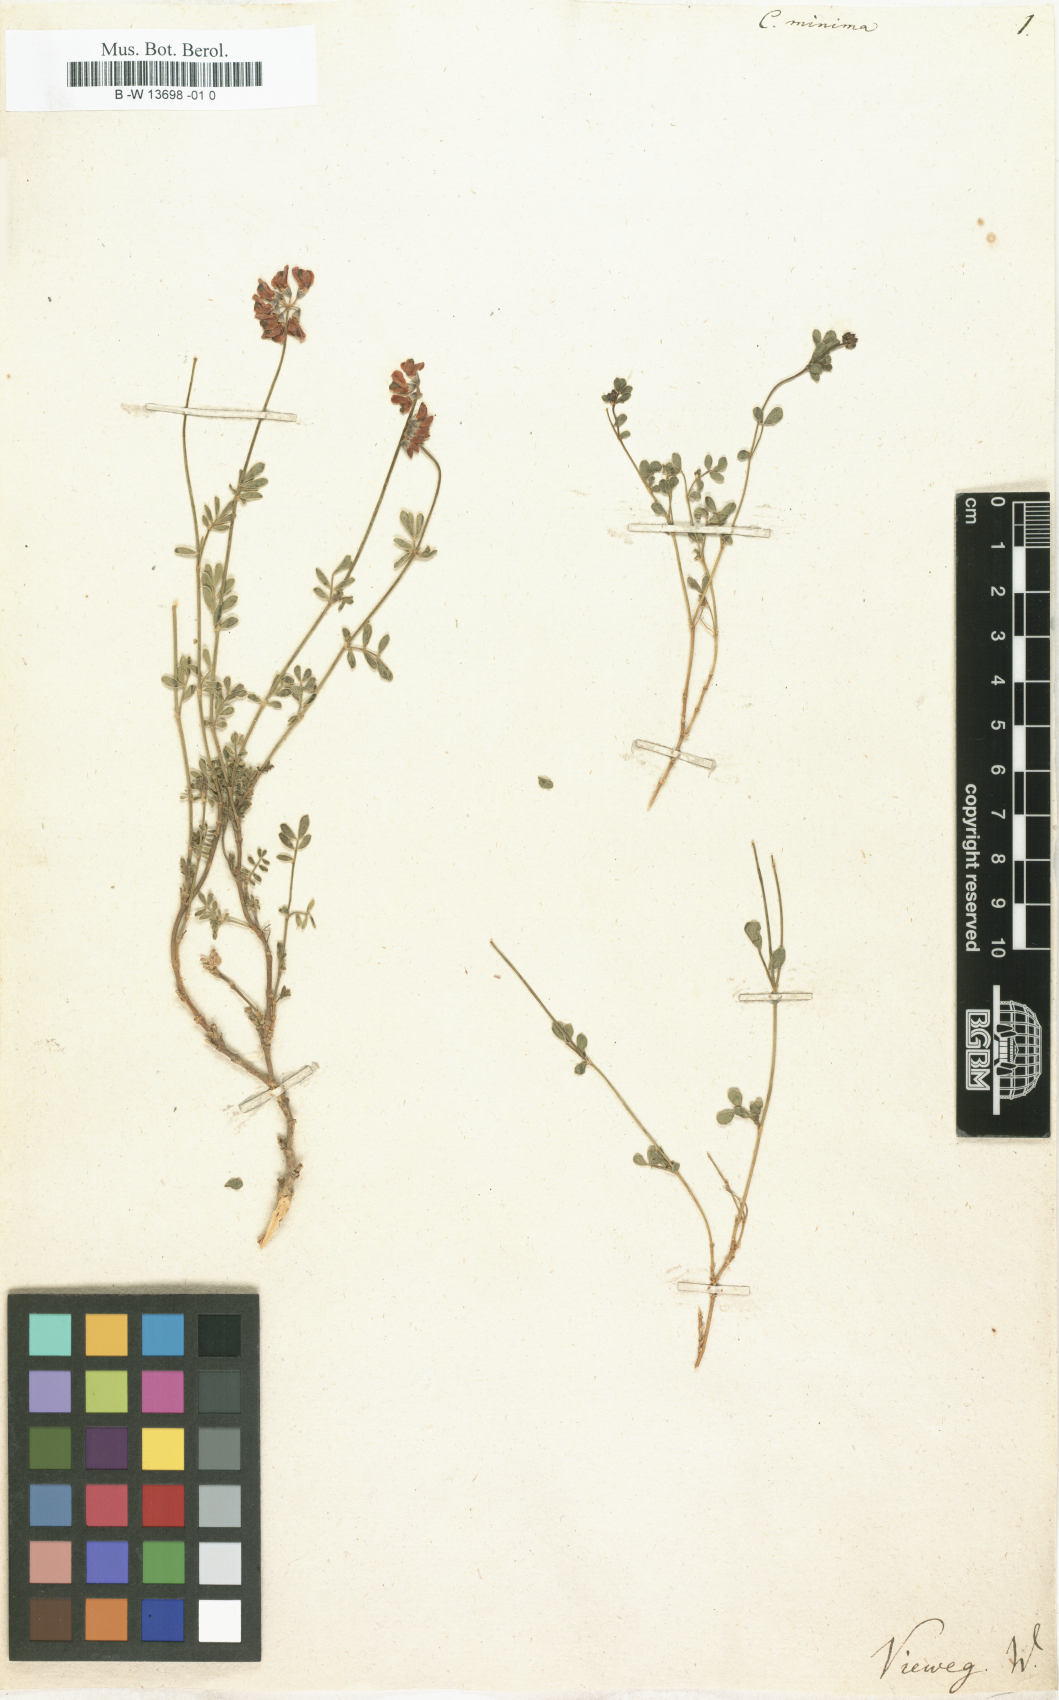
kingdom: Plantae
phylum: Tracheophyta
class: Magnoliopsida
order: Fabales
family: Fabaceae
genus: Coronilla
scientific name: Coronilla minima
